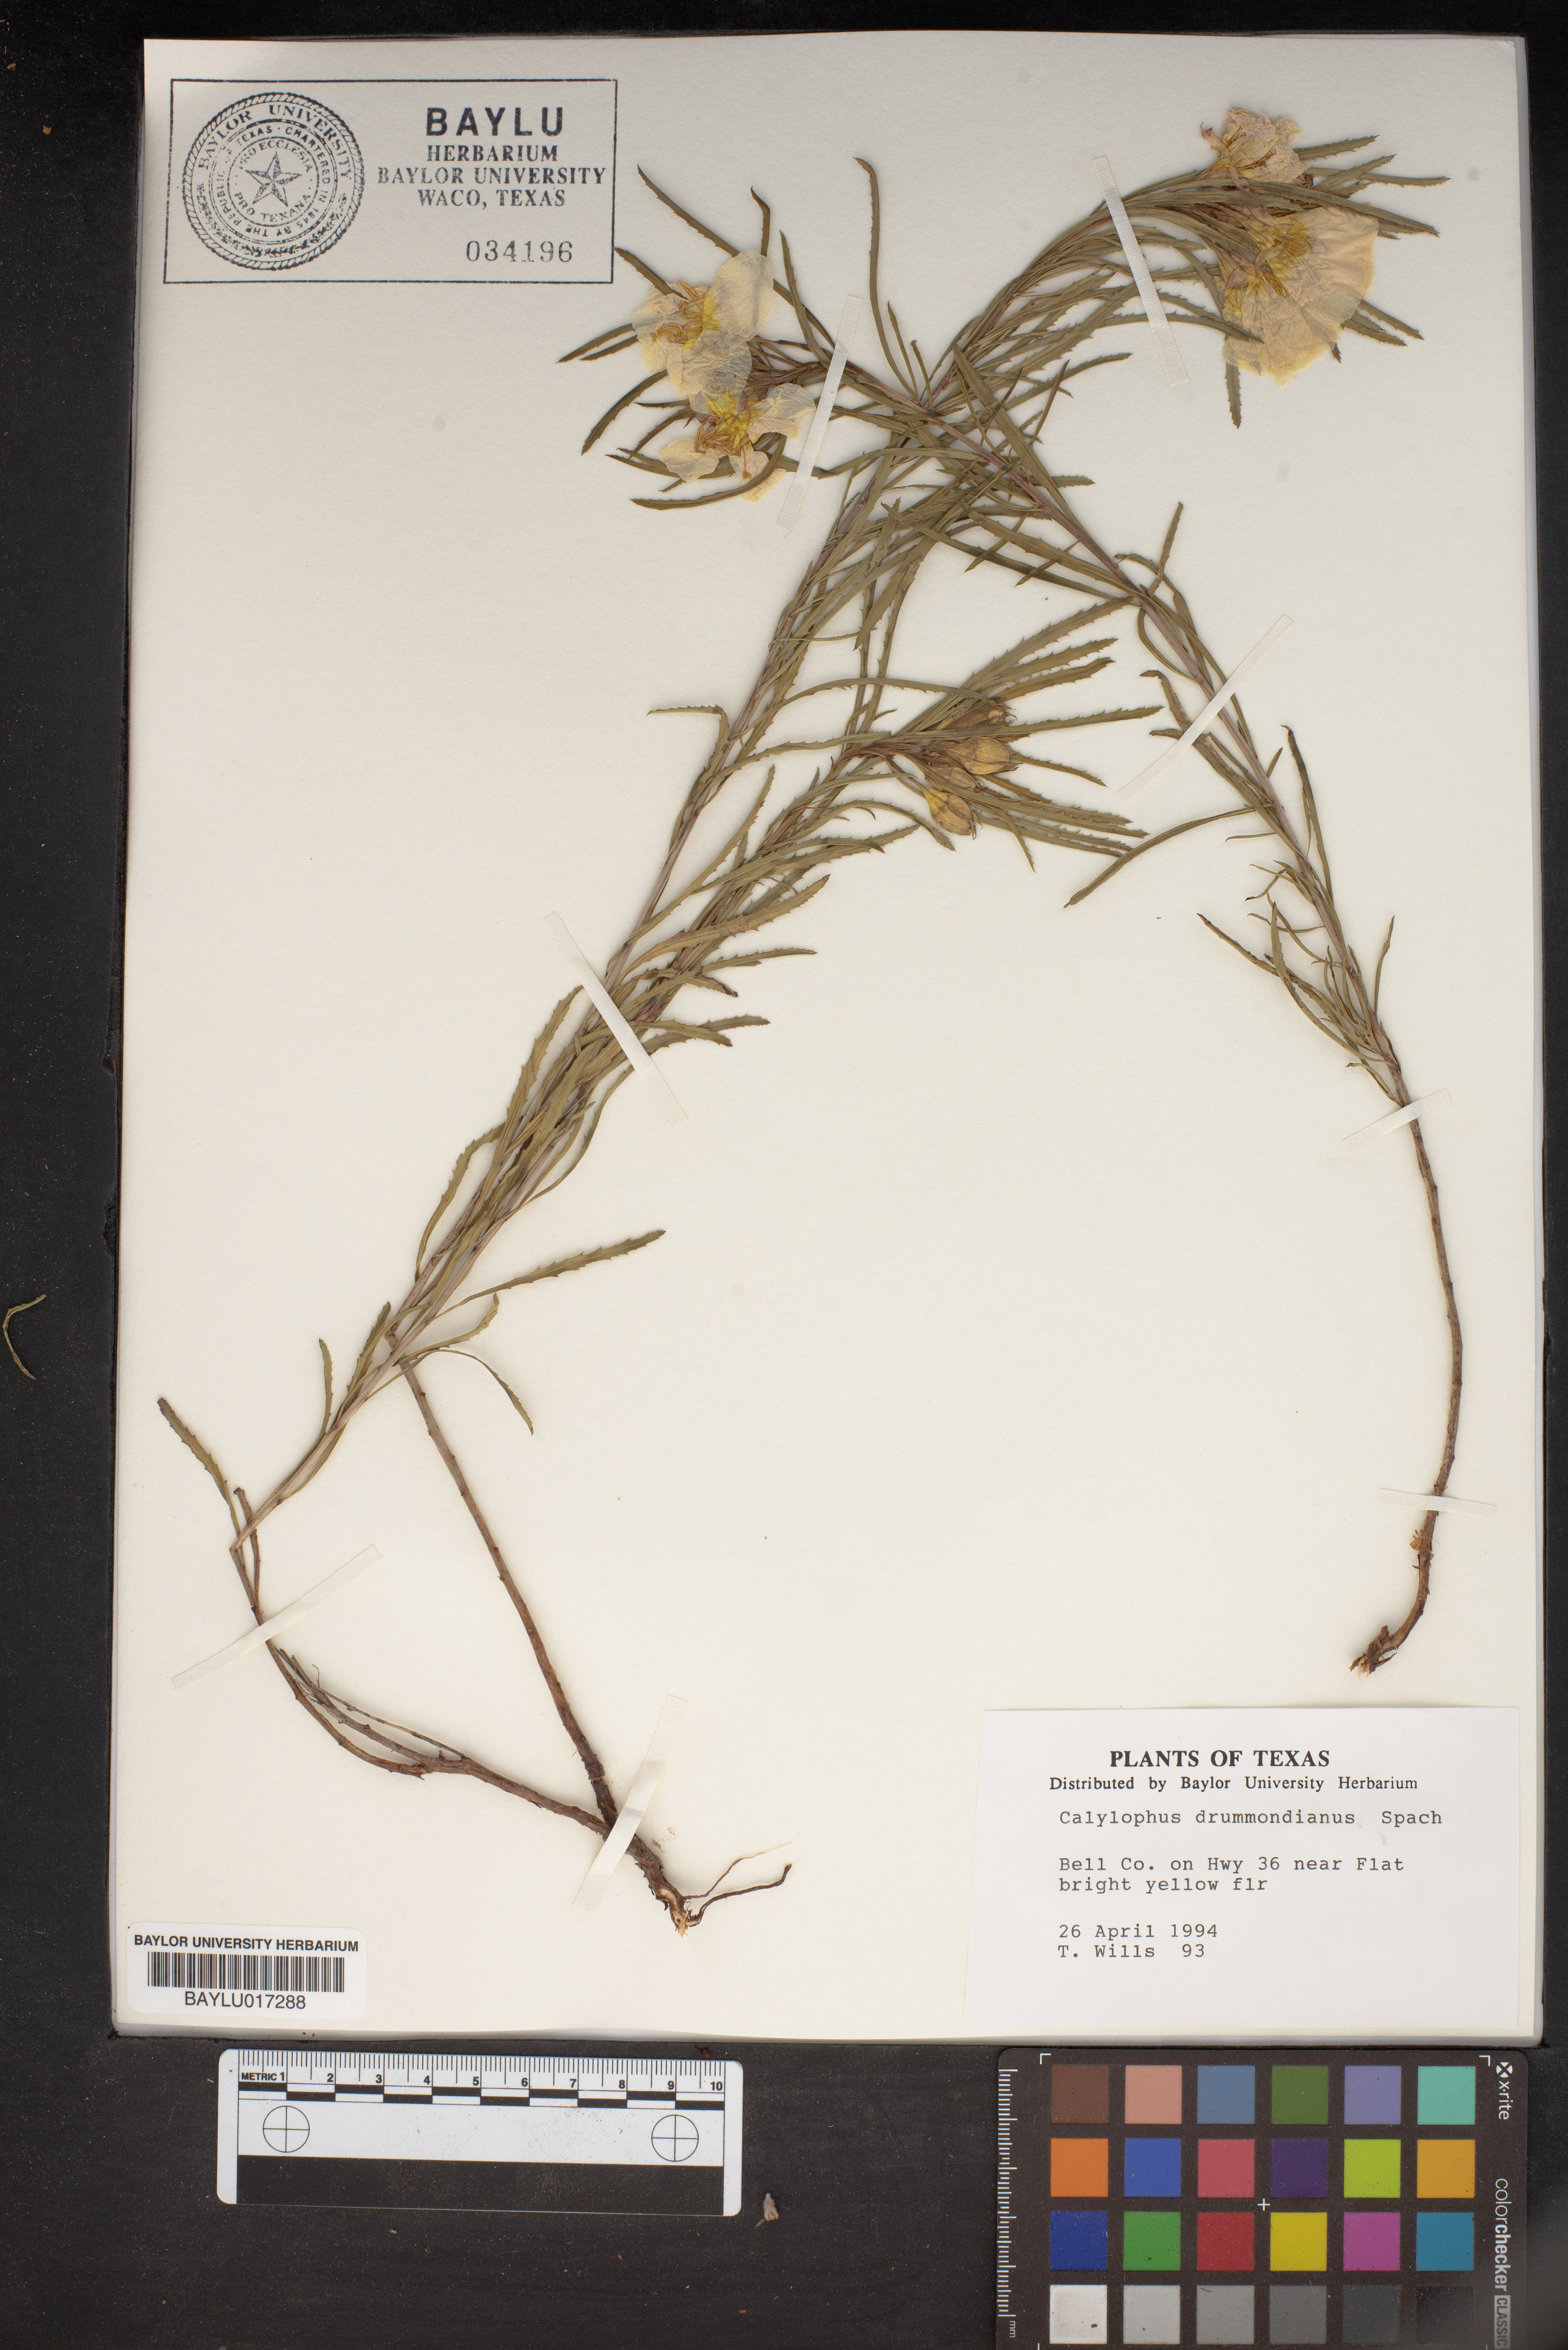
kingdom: Plantae
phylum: Tracheophyta
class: Magnoliopsida
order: Myrtales
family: Onagraceae
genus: Oenothera
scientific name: Oenothera serrulata
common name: Half-shrub calylophus
